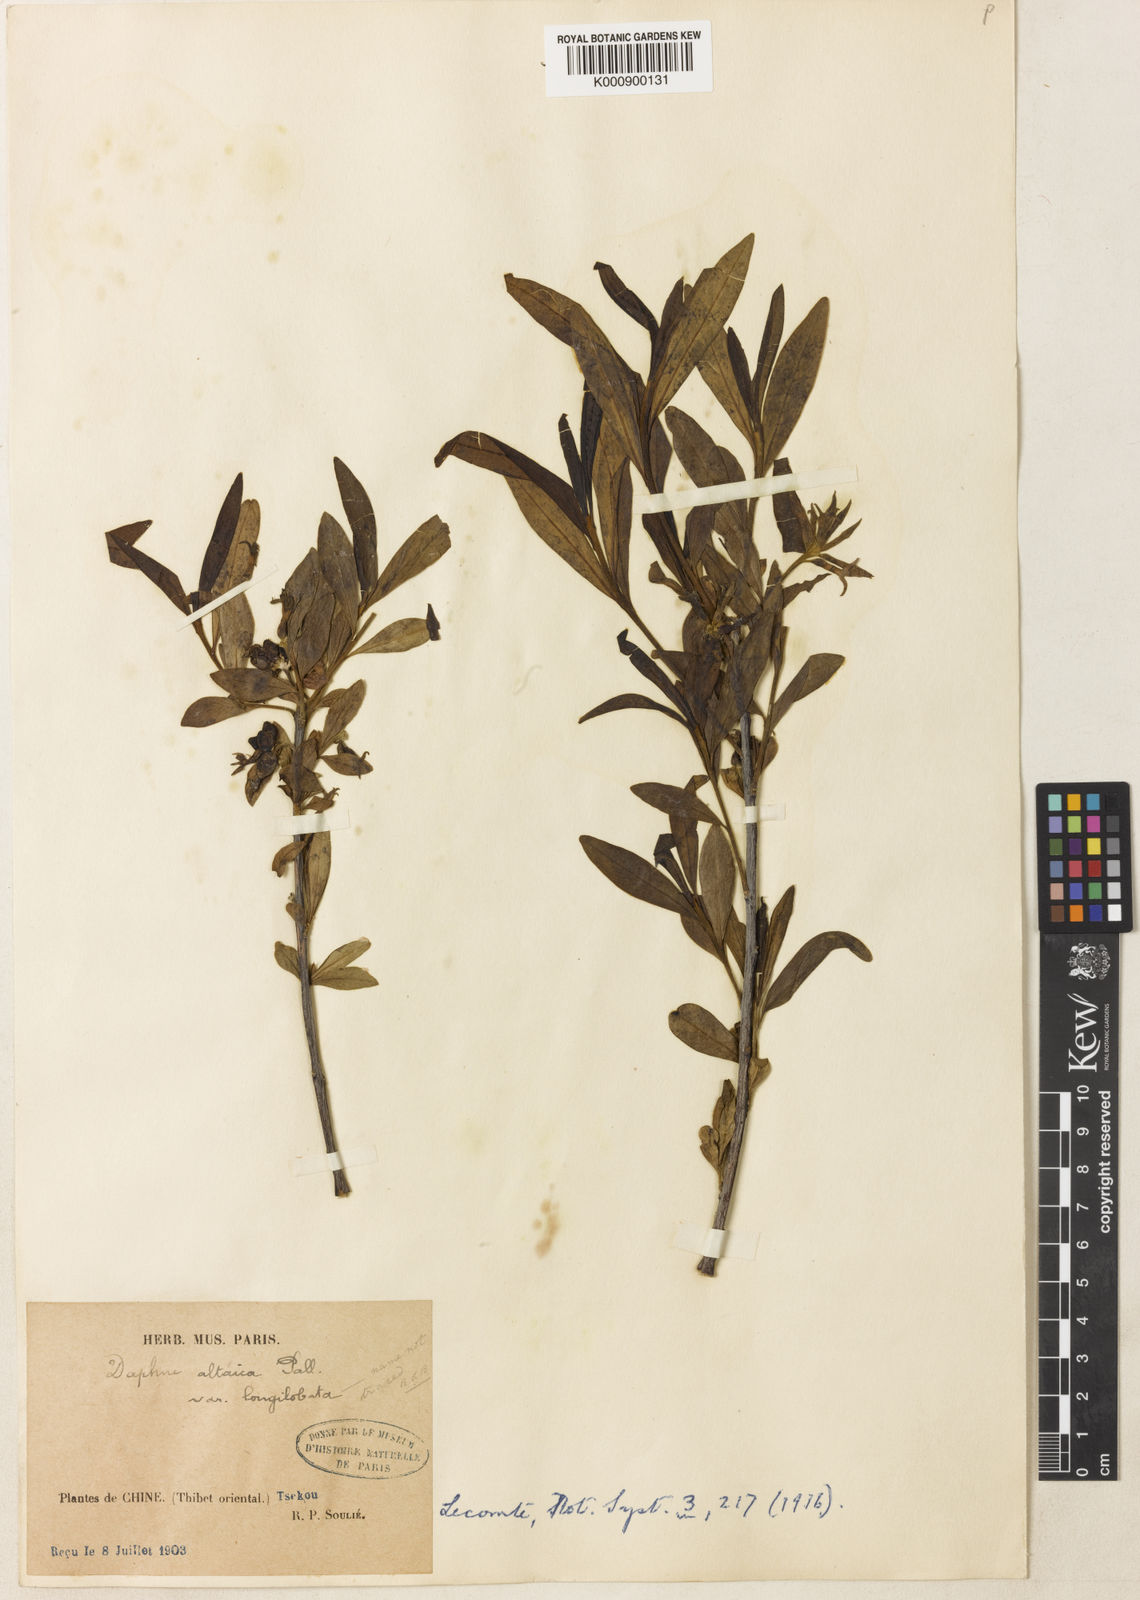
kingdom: Plantae
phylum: Tracheophyta
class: Magnoliopsida
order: Malvales
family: Thymelaeaceae
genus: Daphne
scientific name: Daphne longilobata
